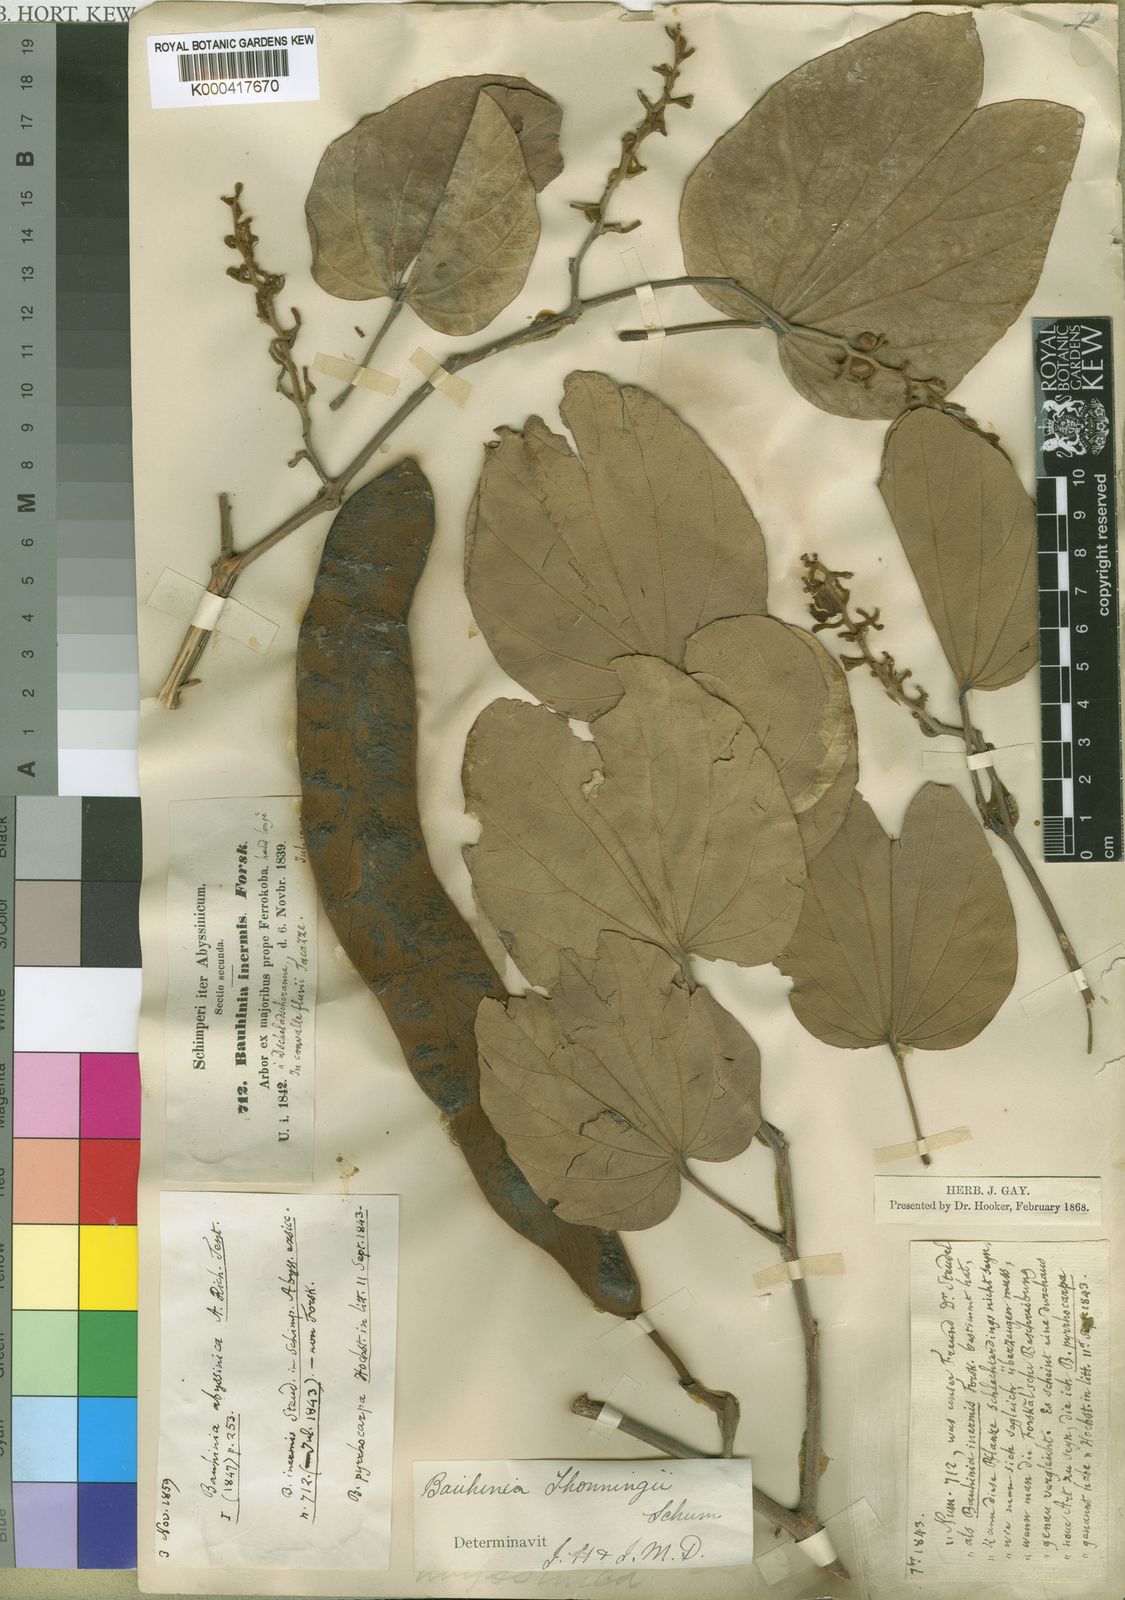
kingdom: Plantae
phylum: Tracheophyta
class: Magnoliopsida
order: Fabales
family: Fabaceae
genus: Piliostigma
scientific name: Piliostigma thonningii
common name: Kao
